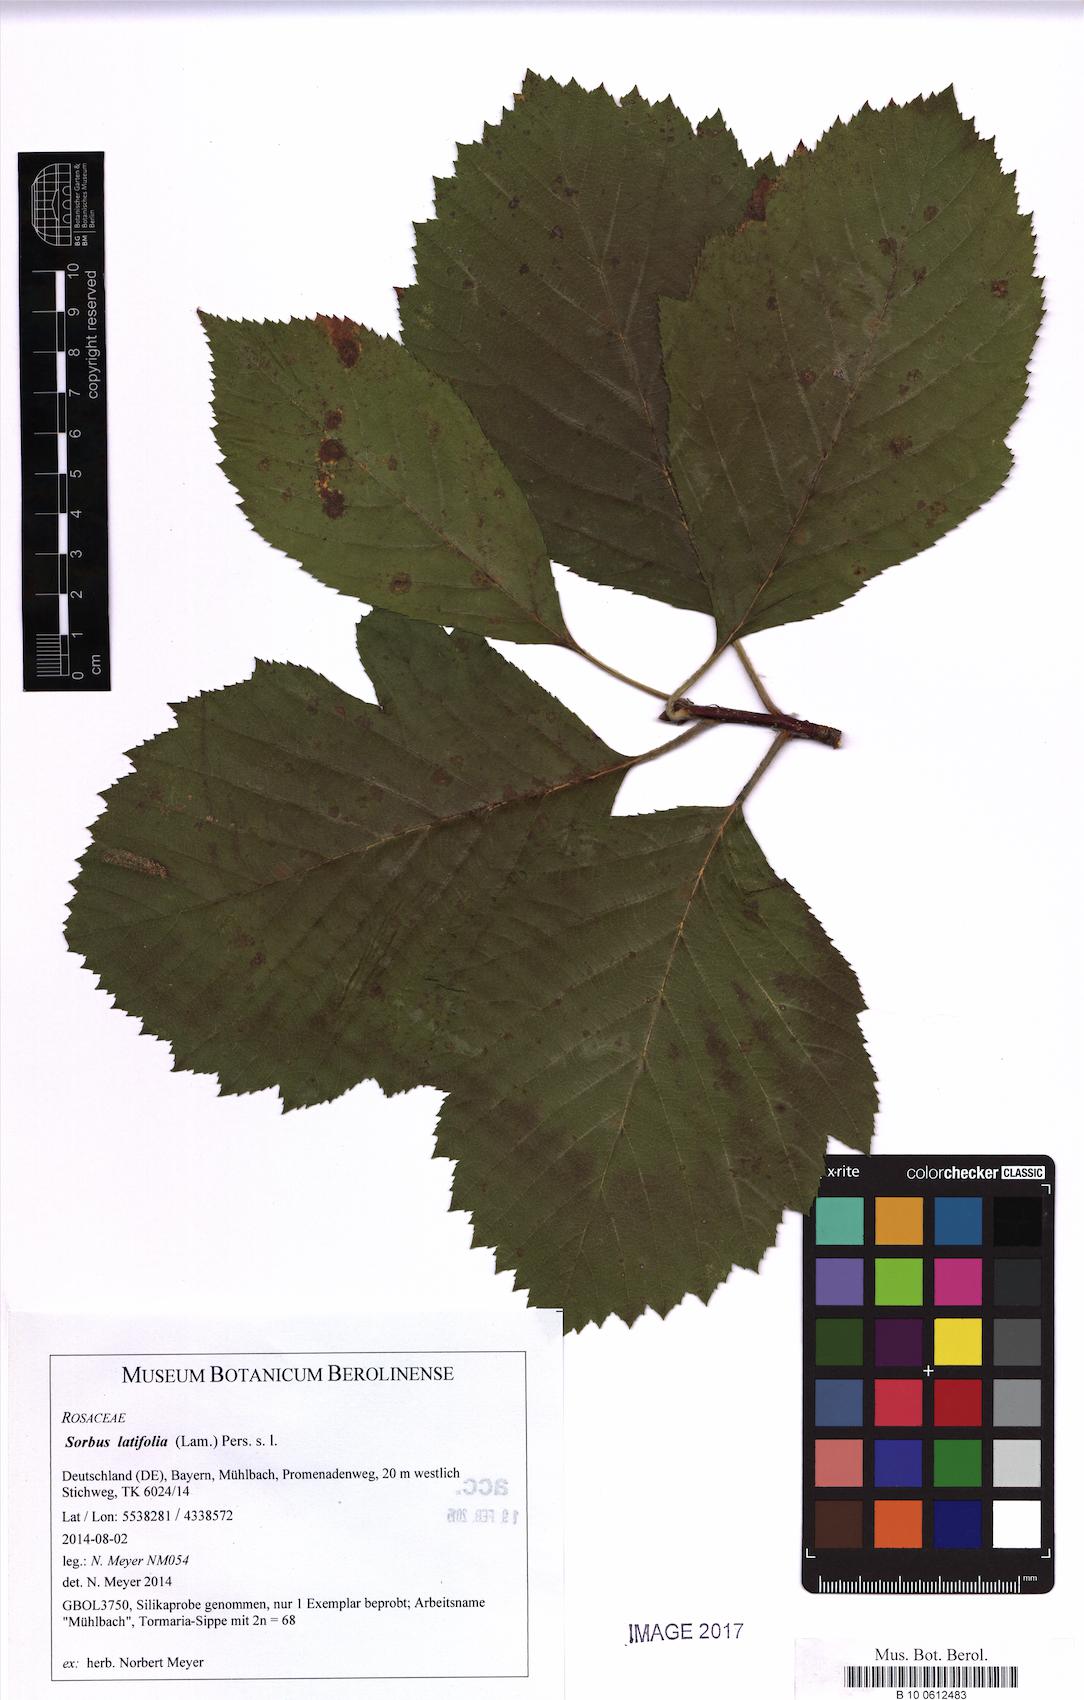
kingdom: Plantae
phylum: Tracheophyta
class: Magnoliopsida
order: Rosales
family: Rosaceae
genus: Karpatiosorbus
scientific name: Karpatiosorbus latifolia
